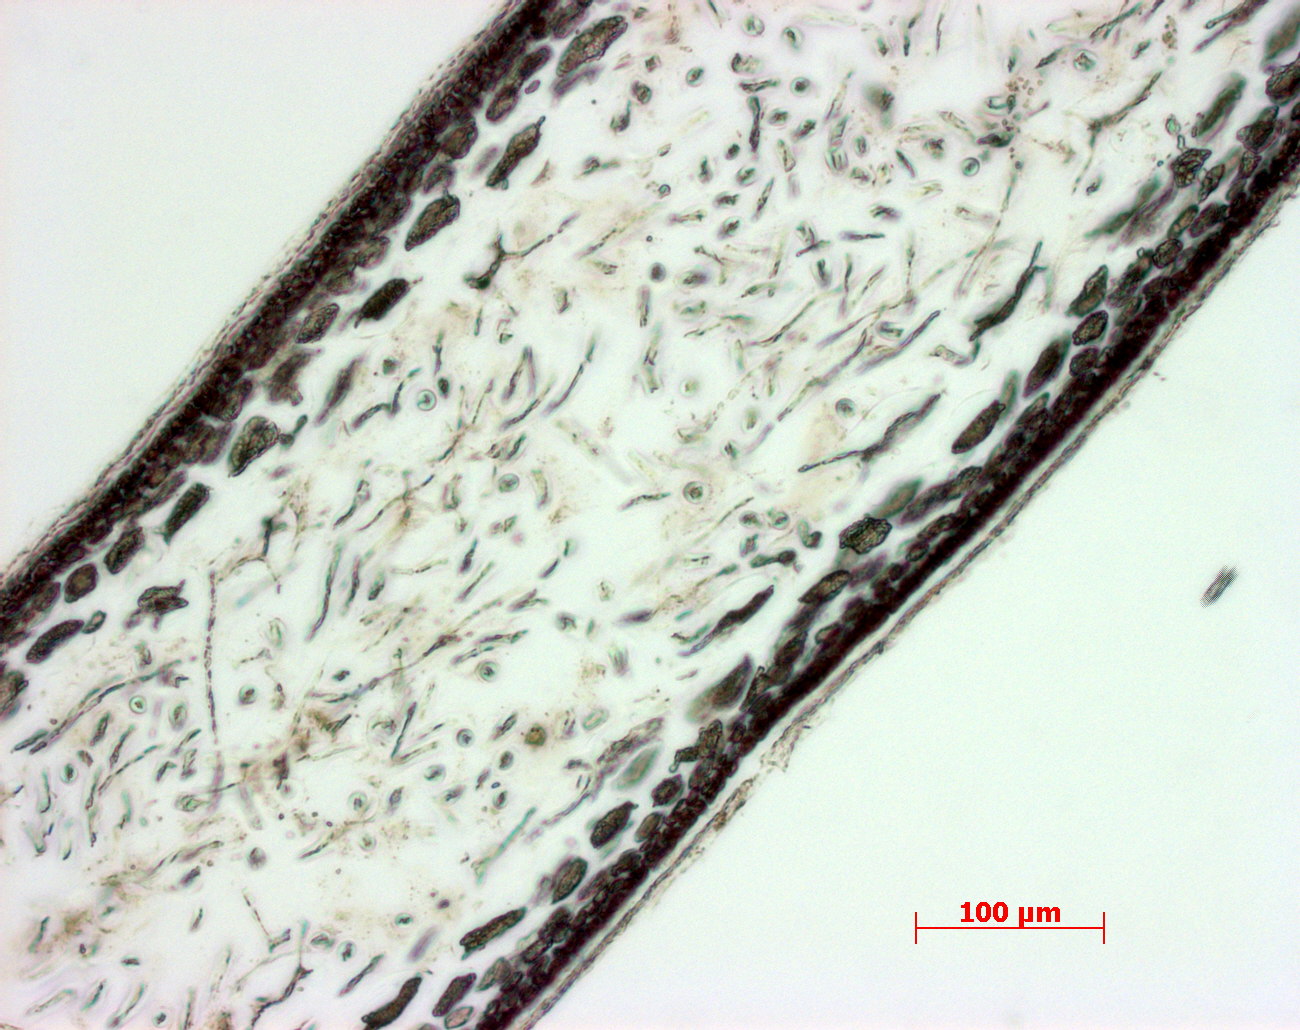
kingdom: Plantae
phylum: Rhodophyta
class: Florideophyceae
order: Gigartinales
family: Kallymeniaceae
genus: Psaromenia
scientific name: Psaromenia berggrenii
